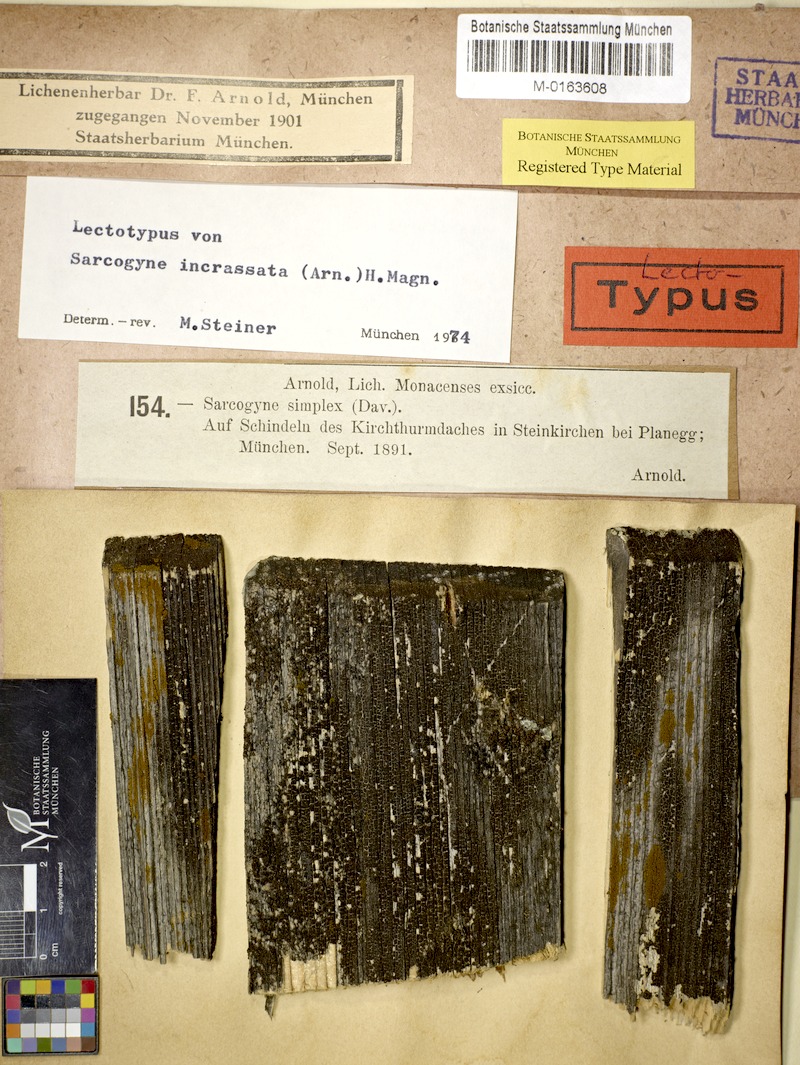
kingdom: Fungi
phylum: Ascomycota
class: Lecanoromycetes
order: Acarosporales
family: Acarosporaceae
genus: Sarcogyne
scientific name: Sarcogyne
